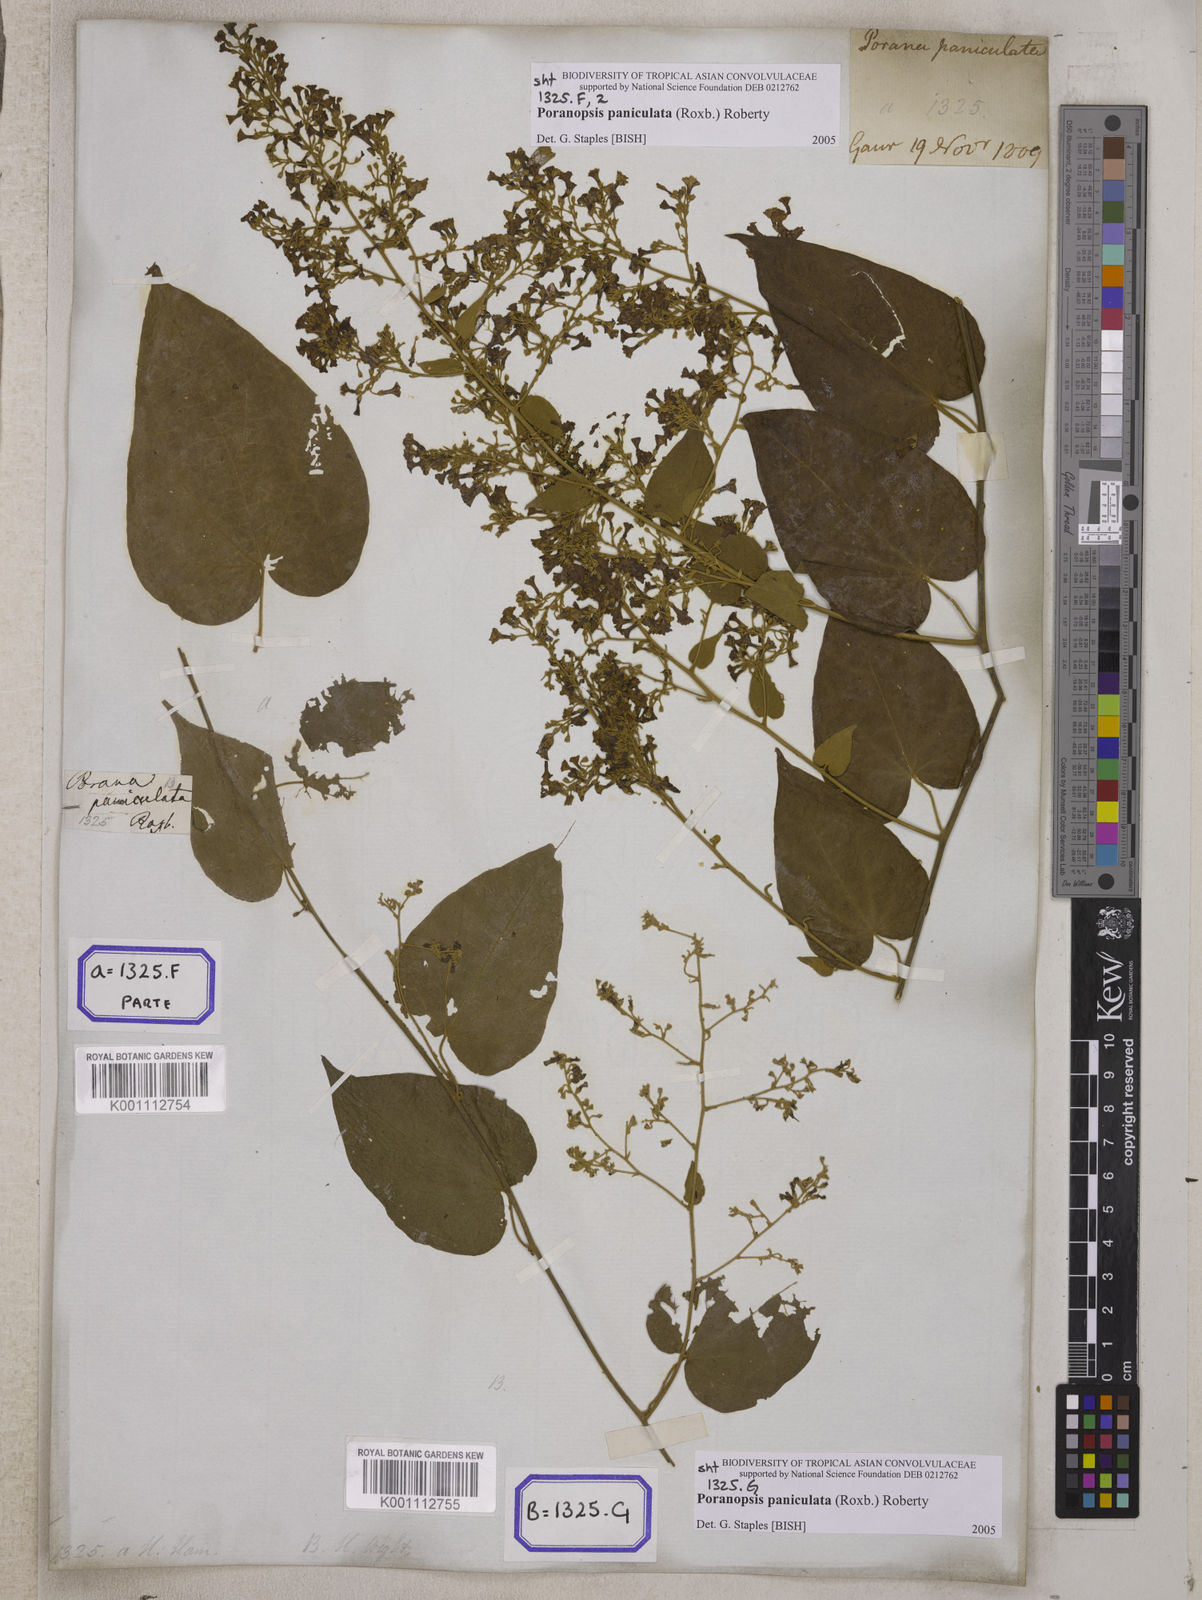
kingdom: Plantae
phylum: Tracheophyta
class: Magnoliopsida
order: Solanales
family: Convolvulaceae
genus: Poranopsis
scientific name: Poranopsis paniculata
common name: Bridal bouquet
